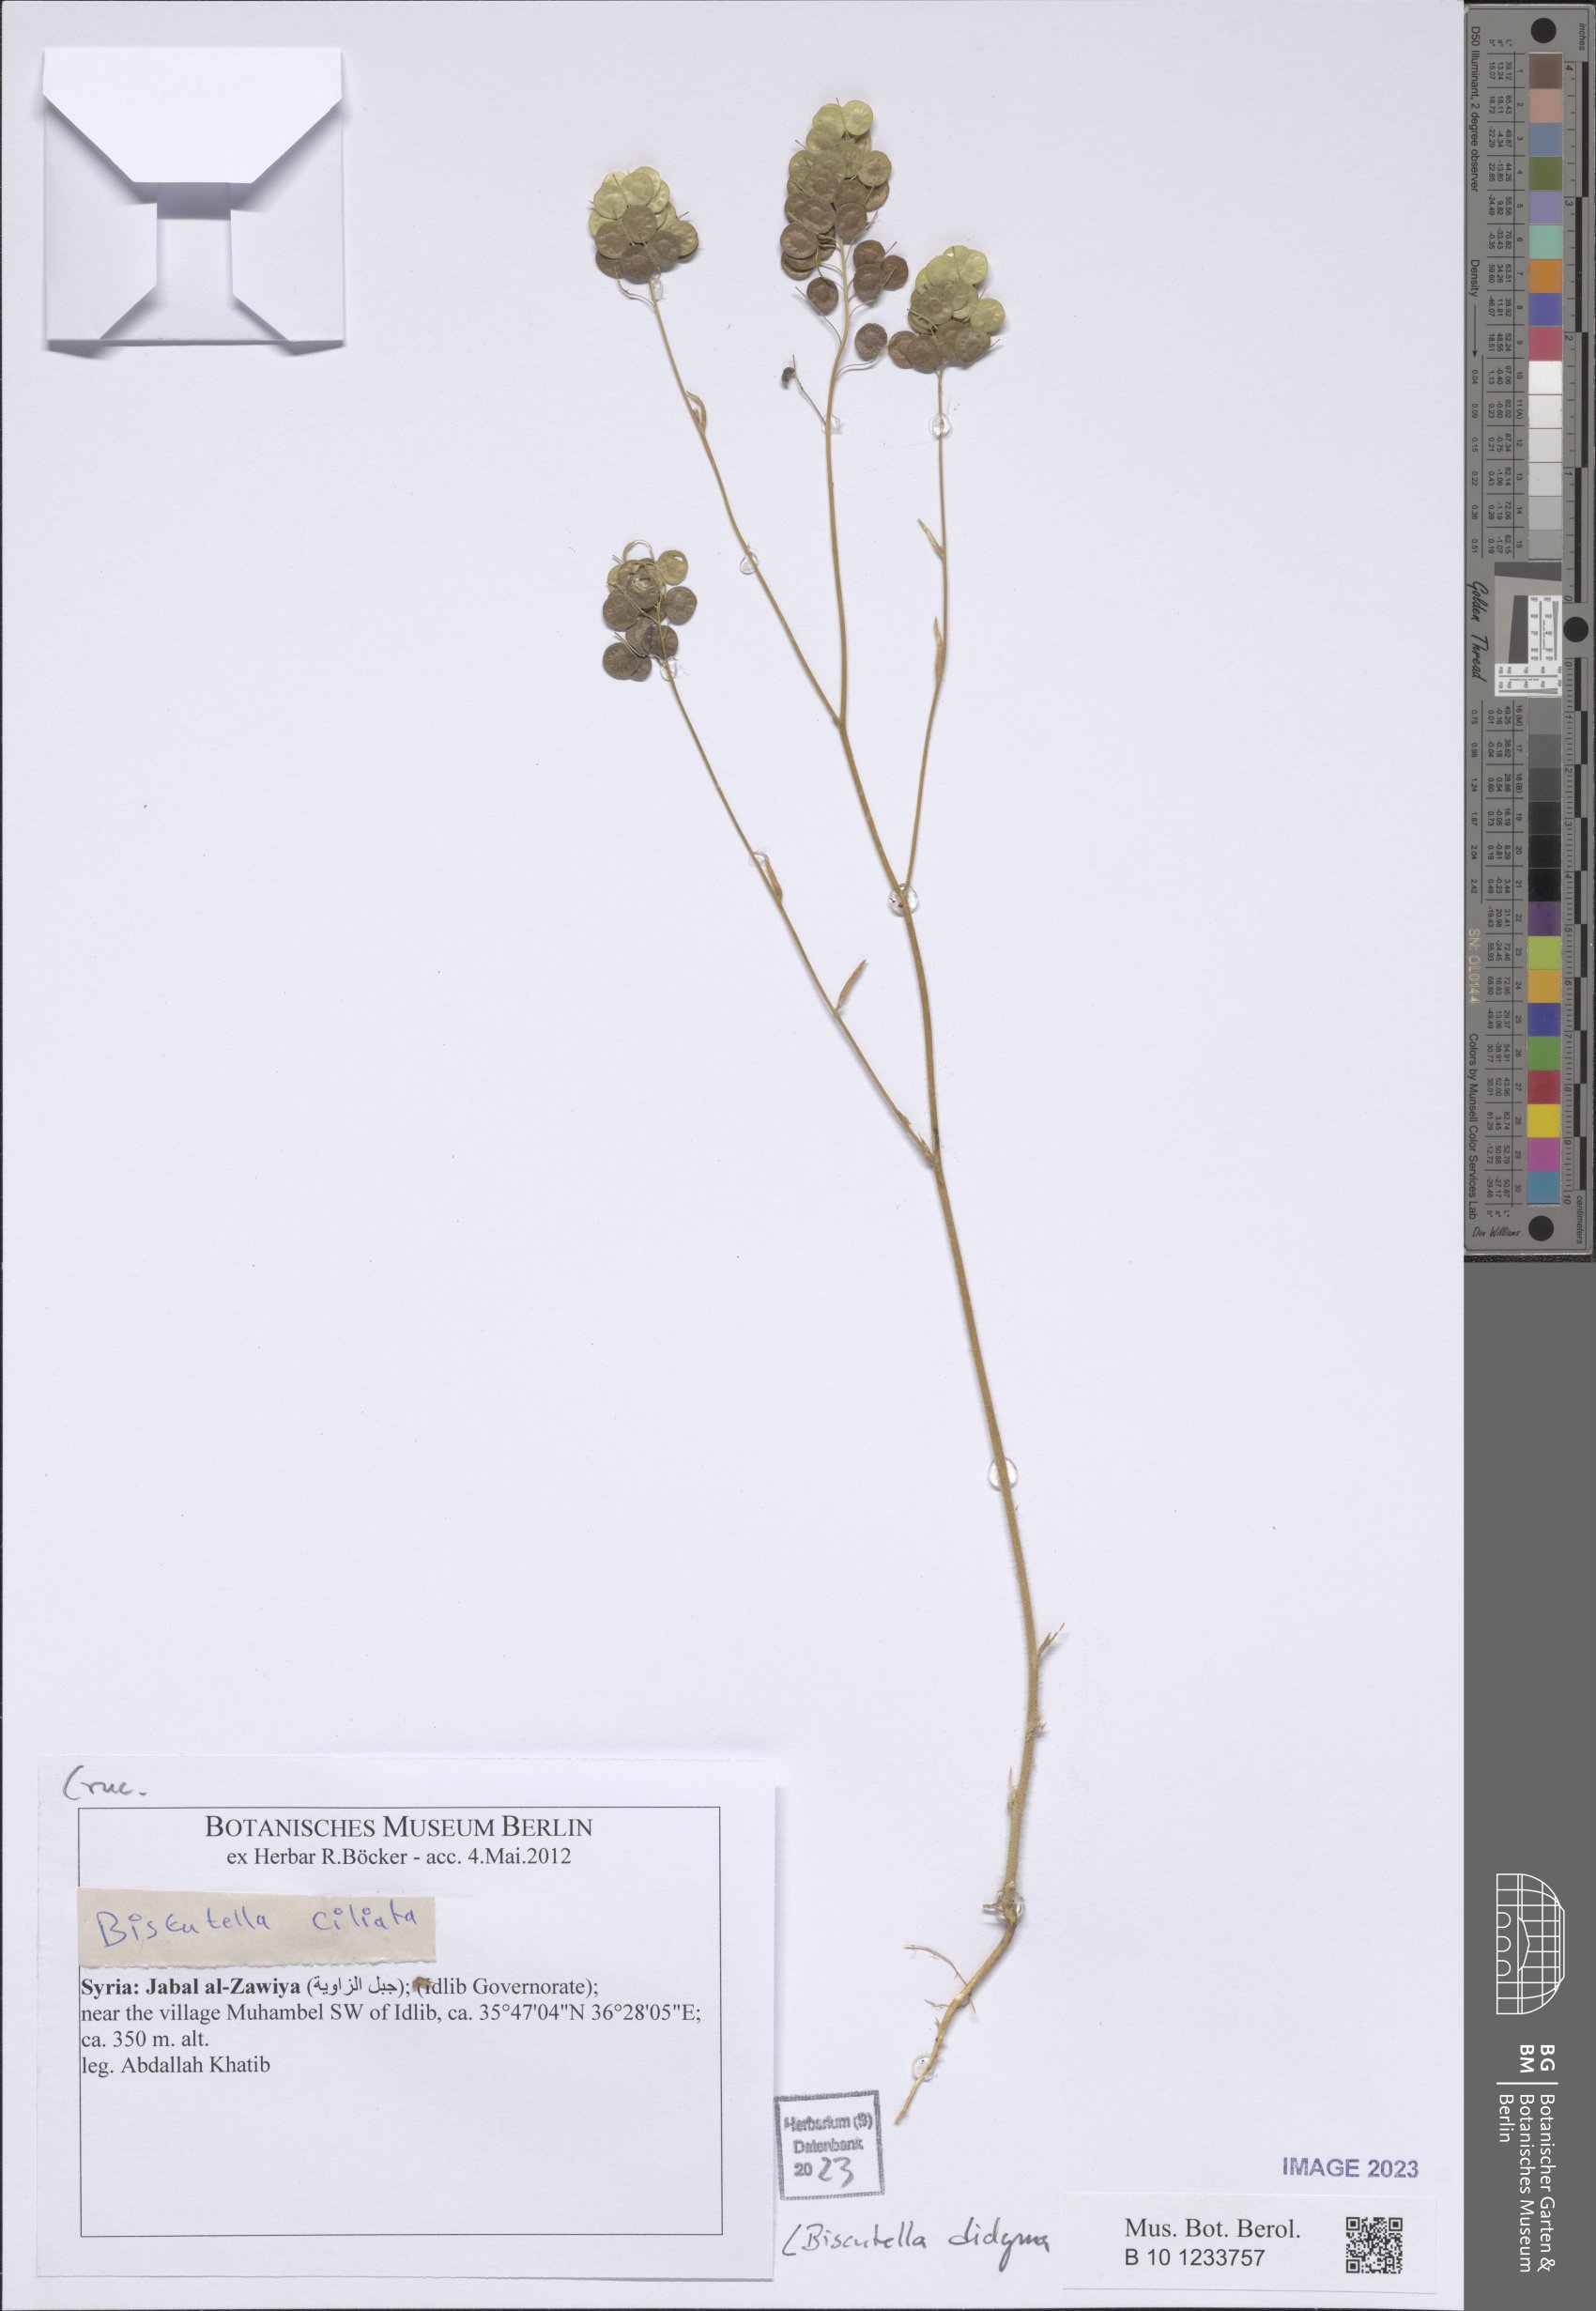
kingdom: Plantae
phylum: Tracheophyta
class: Magnoliopsida
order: Brassicales
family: Brassicaceae
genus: Biscutella
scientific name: Biscutella didyma
